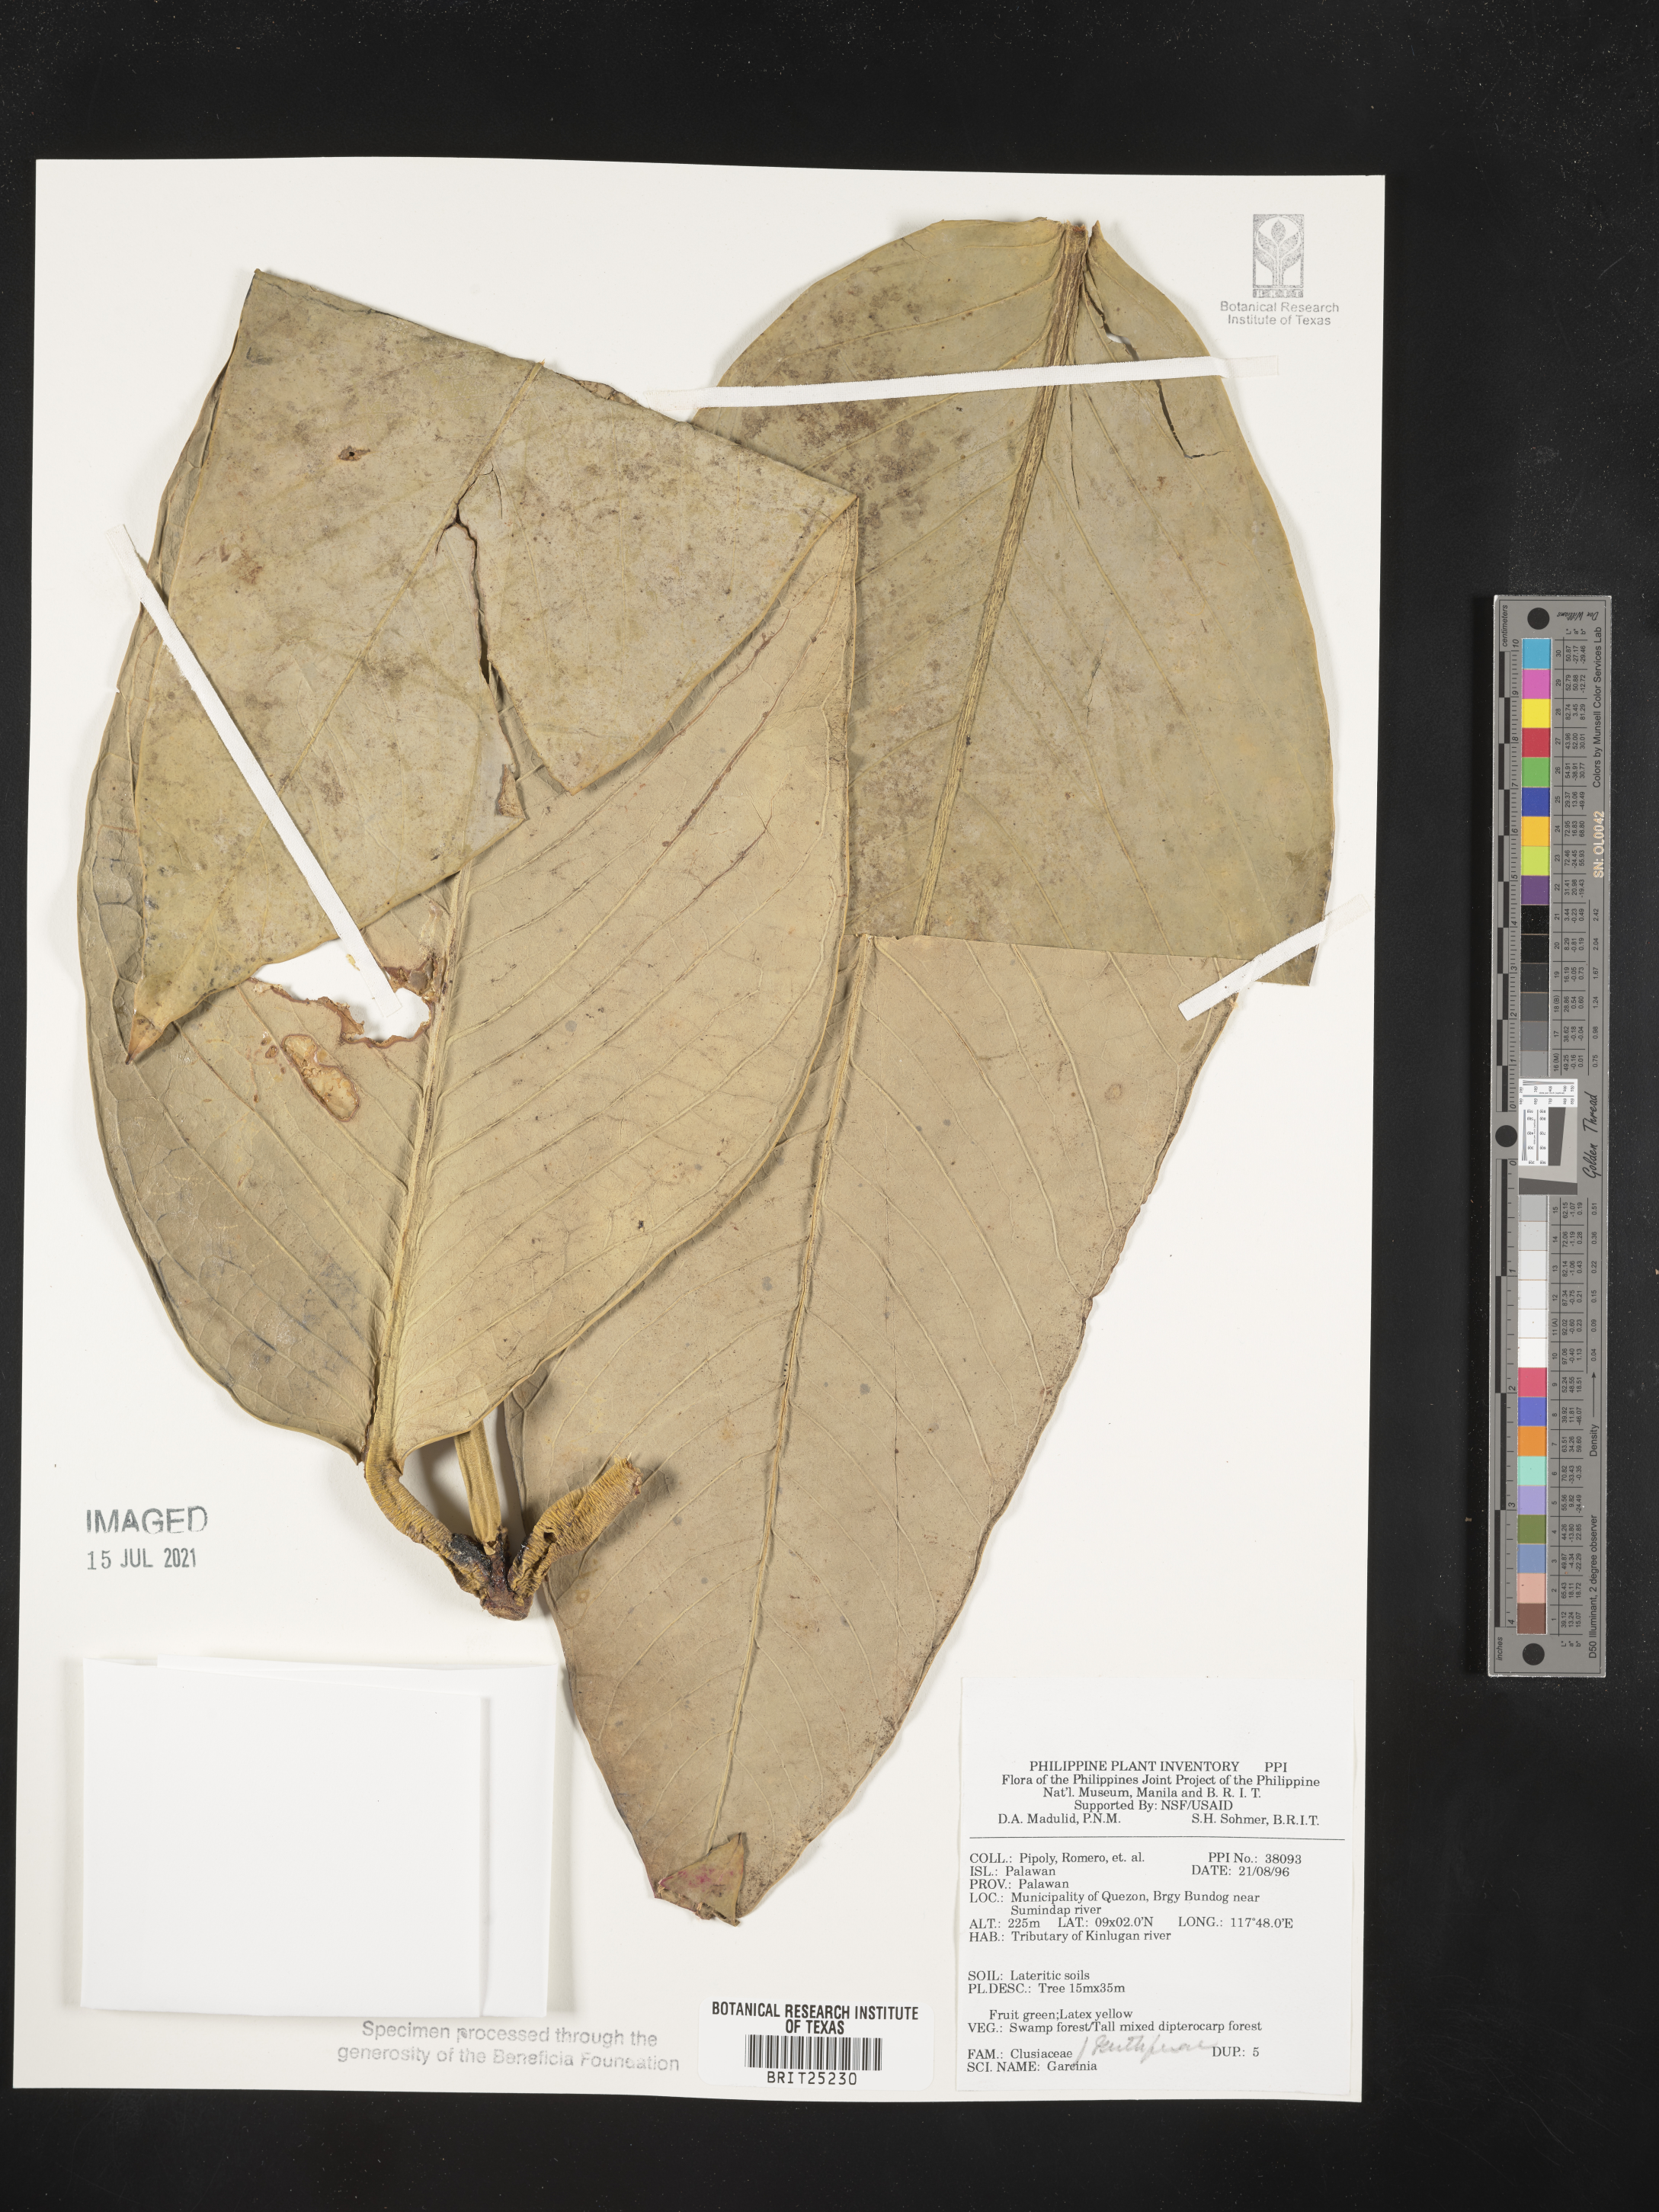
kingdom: Plantae
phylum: Tracheophyta
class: Magnoliopsida
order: Malpighiales
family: Clusiaceae
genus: Garcinia
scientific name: Garcinia
